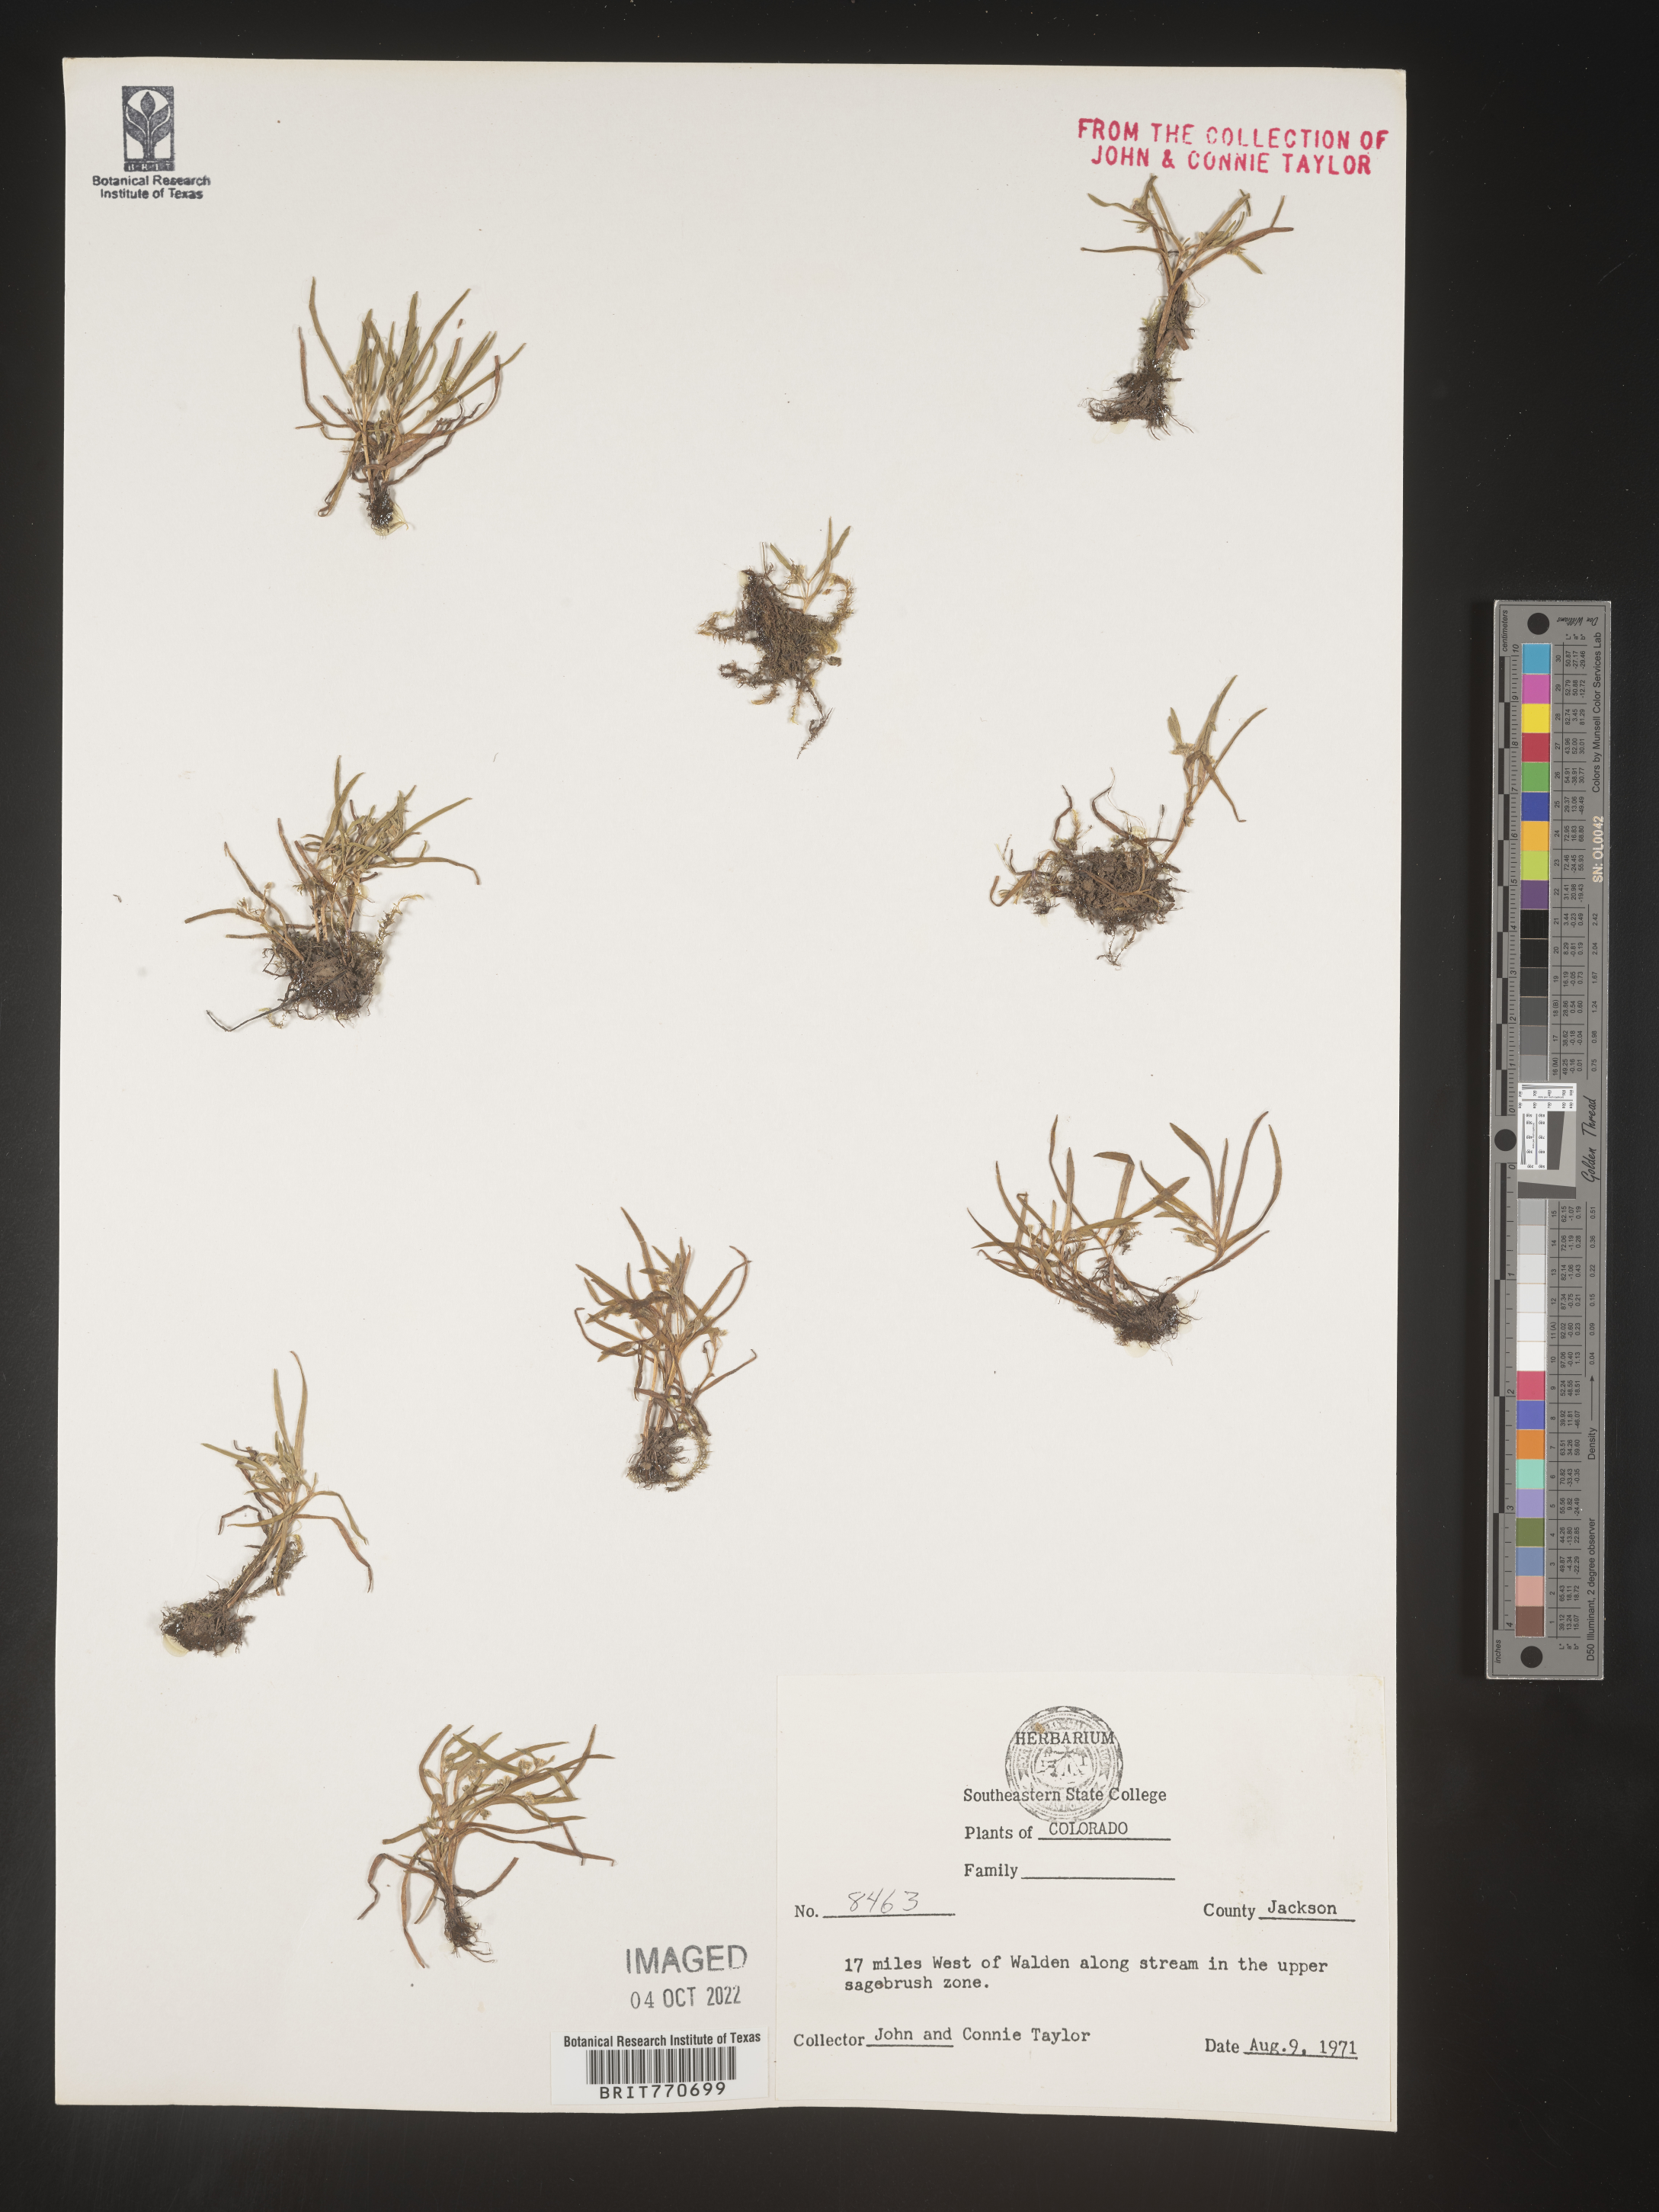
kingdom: Plantae
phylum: Tracheophyta
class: Magnoliopsida
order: Boraginales
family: Boraginaceae
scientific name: Boraginaceae
